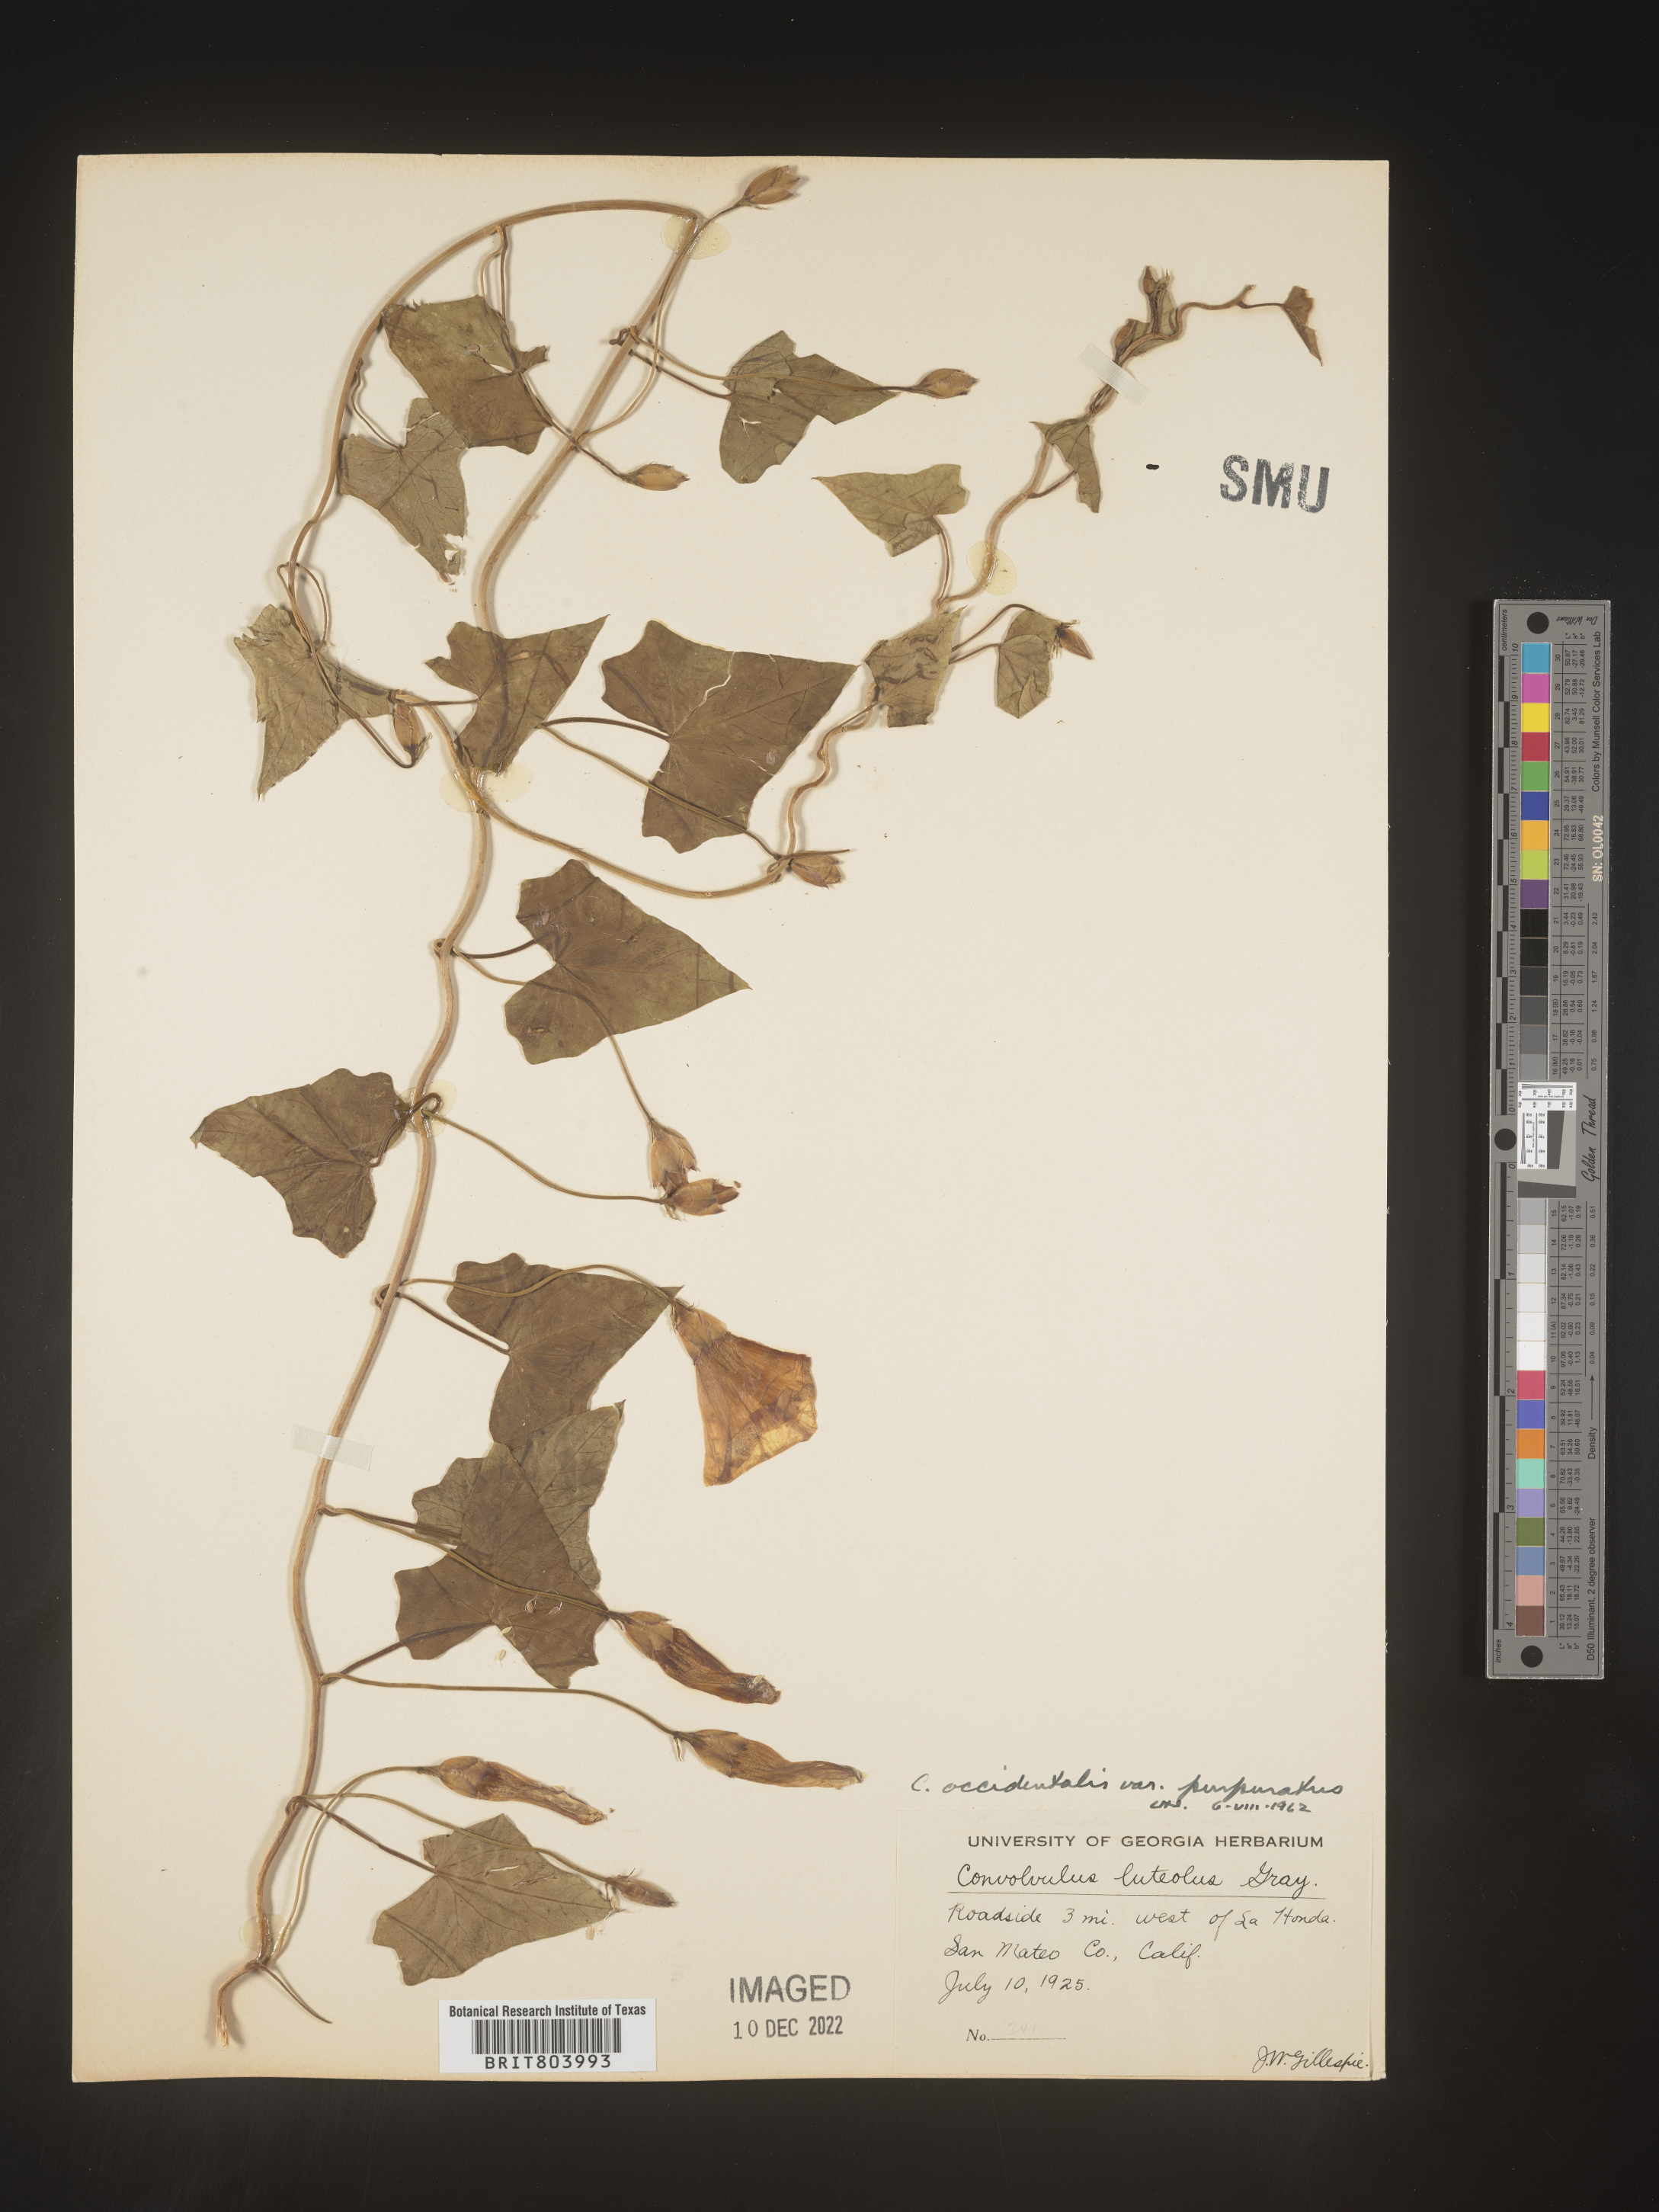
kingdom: Plantae
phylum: Tracheophyta
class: Magnoliopsida
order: Solanales
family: Convolvulaceae
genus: Calystegia
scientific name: Calystegia
